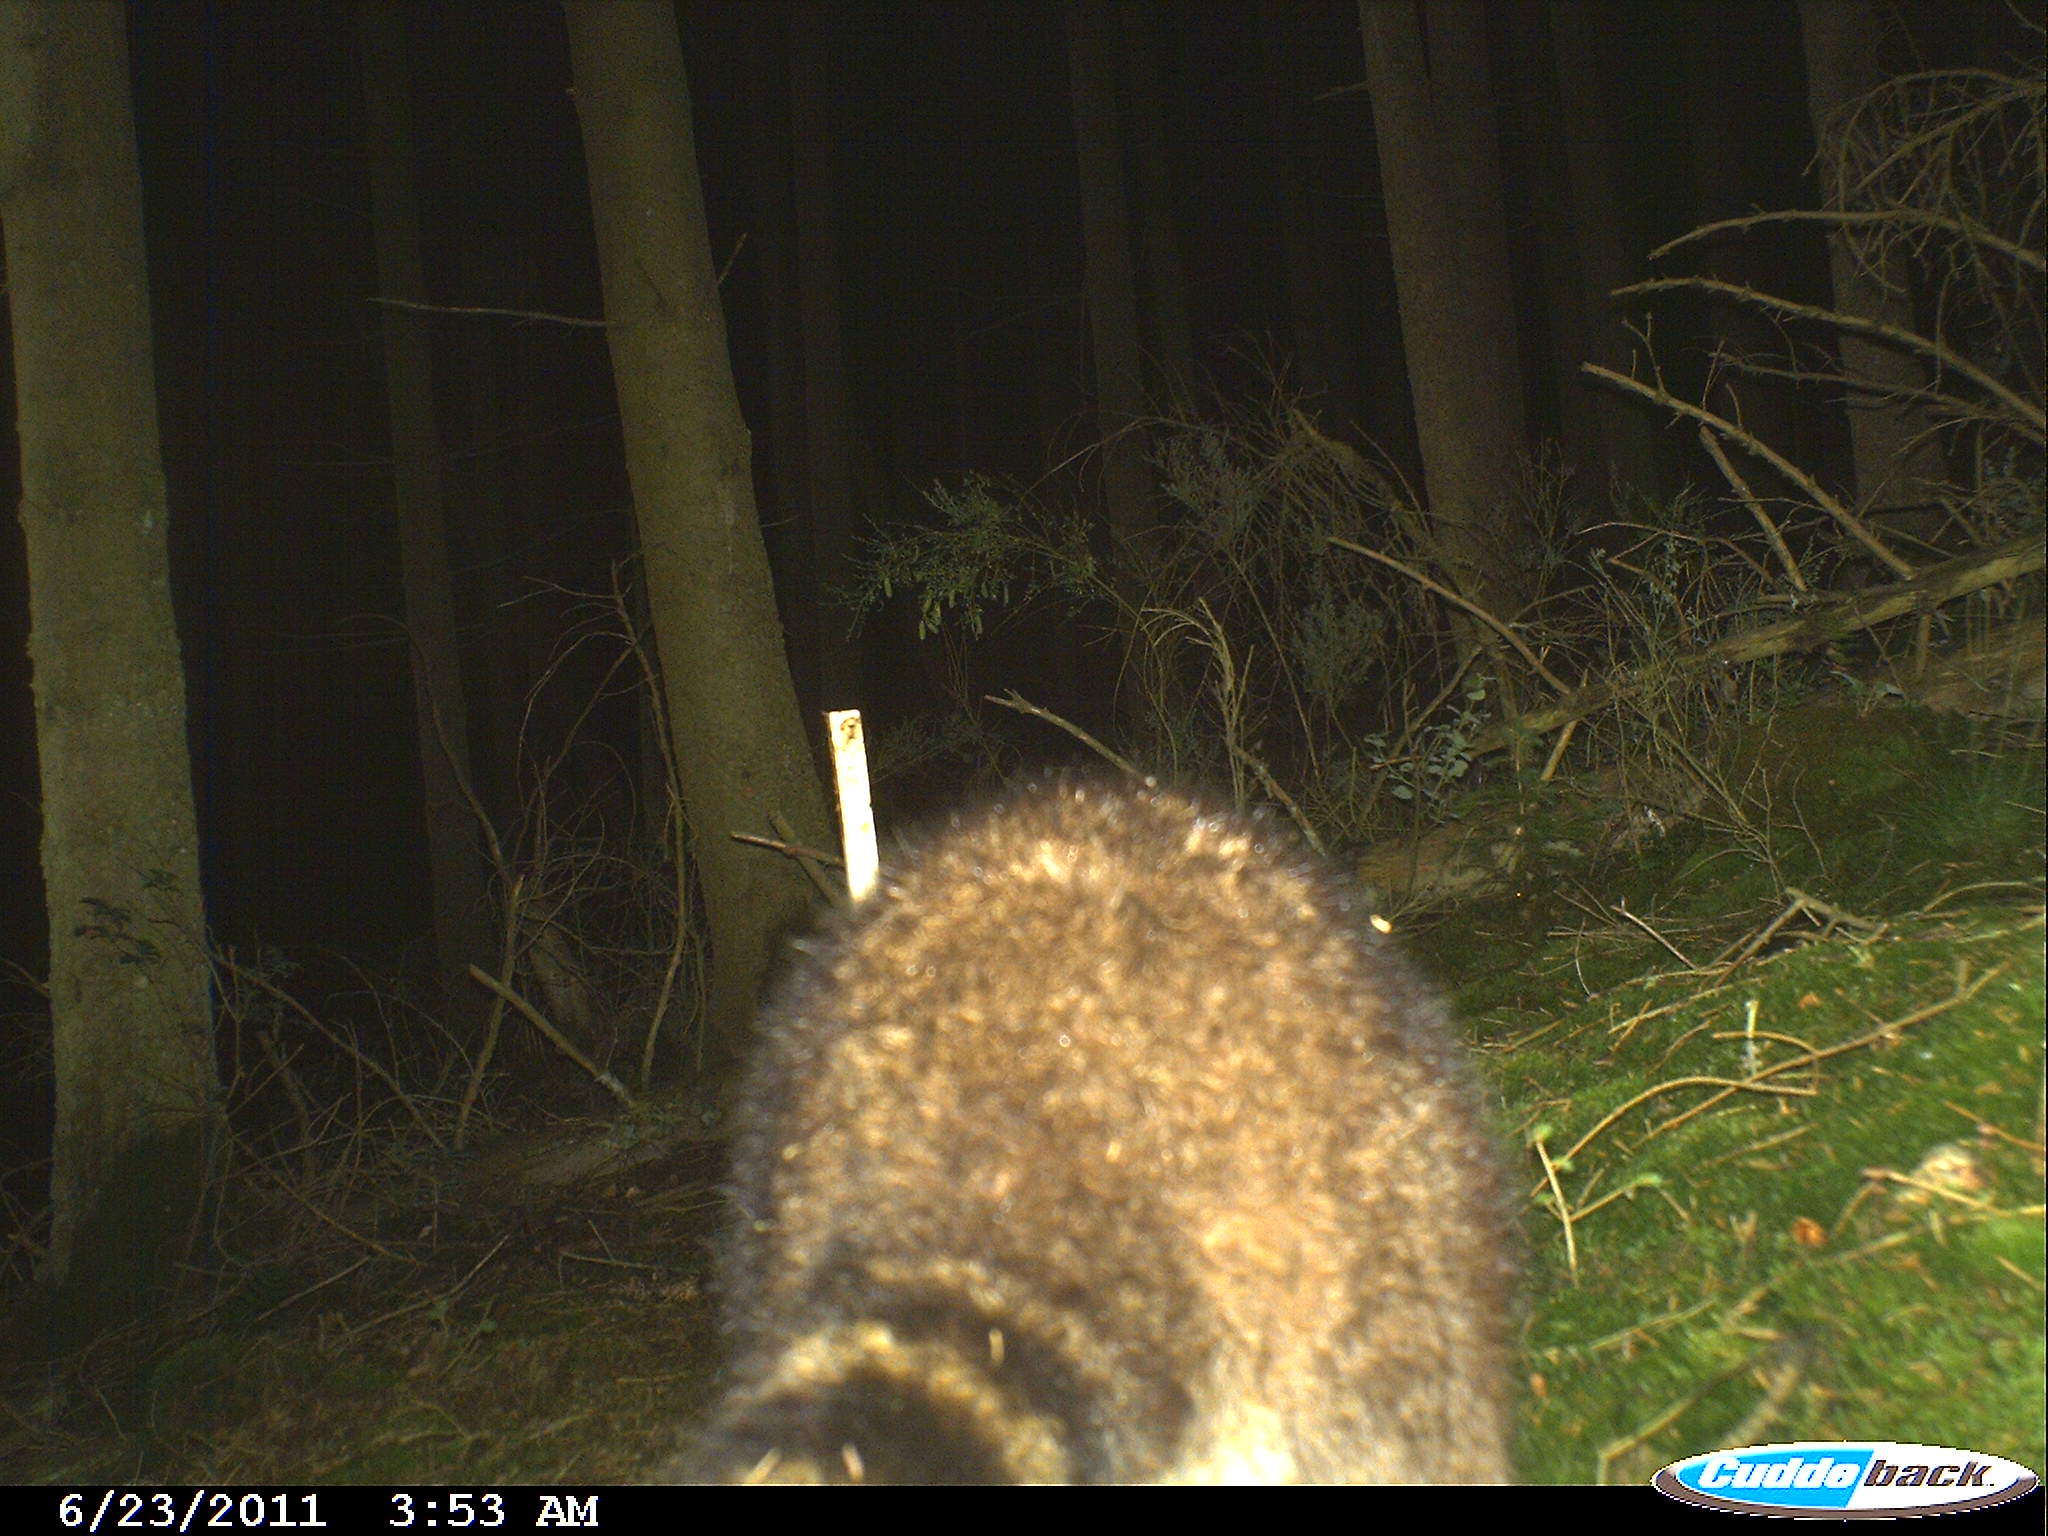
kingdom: Animalia
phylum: Chordata
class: Mammalia
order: Carnivora
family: Procyonidae
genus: Procyon
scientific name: Procyon lotor
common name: Raccoon
